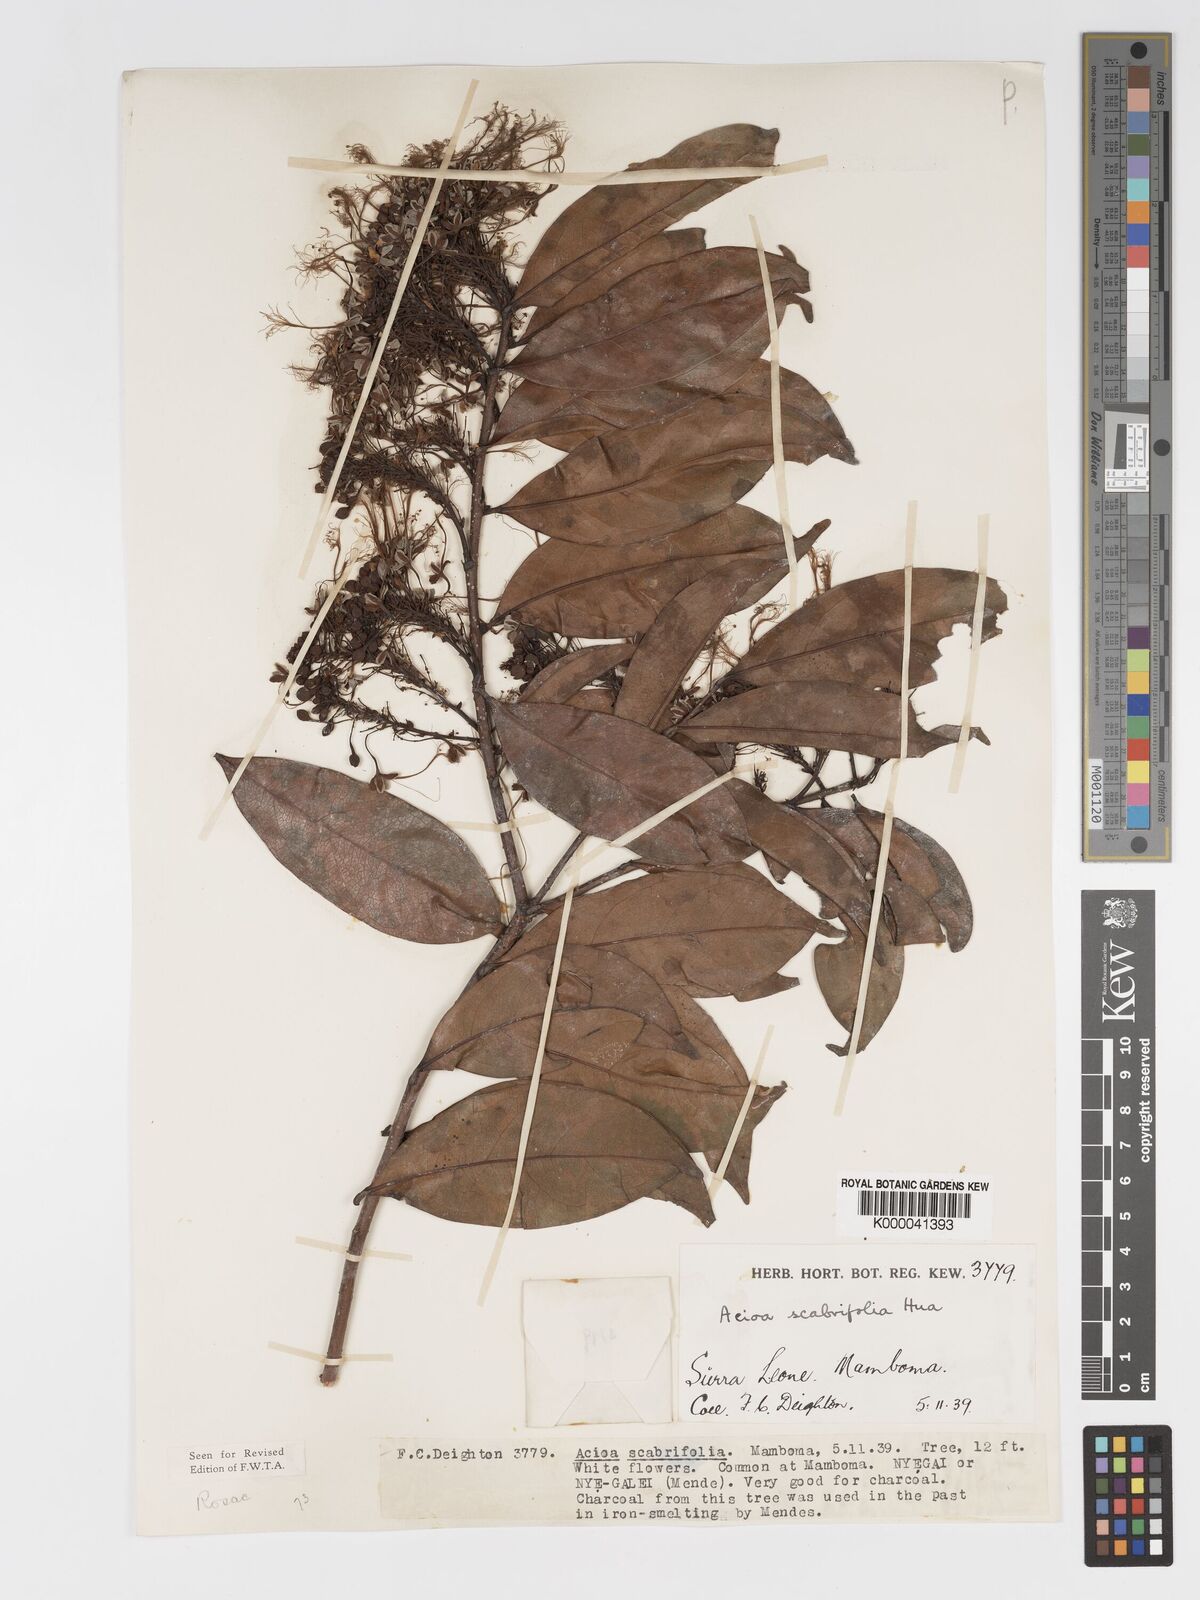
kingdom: Plantae
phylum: Tracheophyta
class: Magnoliopsida
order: Malpighiales
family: Chrysobalanaceae
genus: Dactyladenia
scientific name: Dactyladenia scabrifolia
